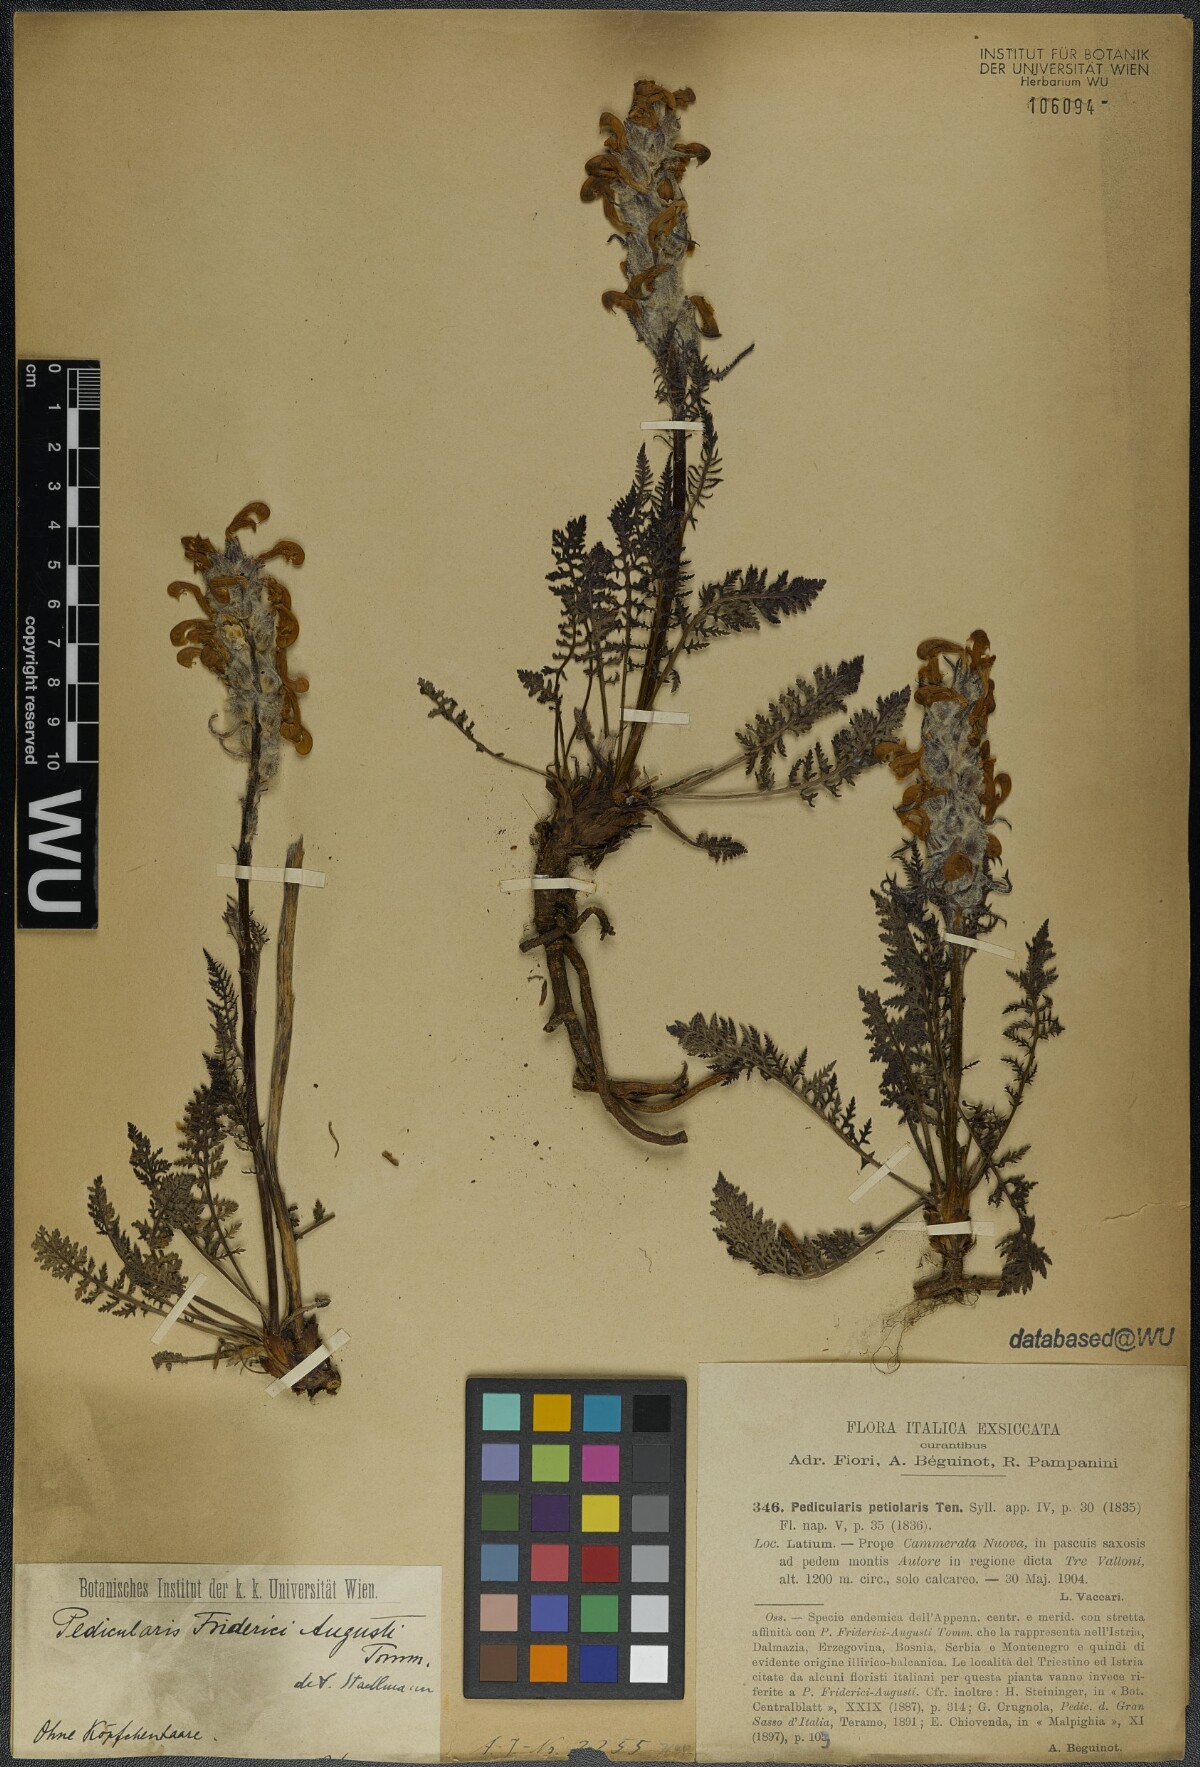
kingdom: Plantae
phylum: Tracheophyta
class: Magnoliopsida
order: Lamiales
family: Orobanchaceae
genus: Pedicularis
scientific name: Pedicularis friderici-augusti
